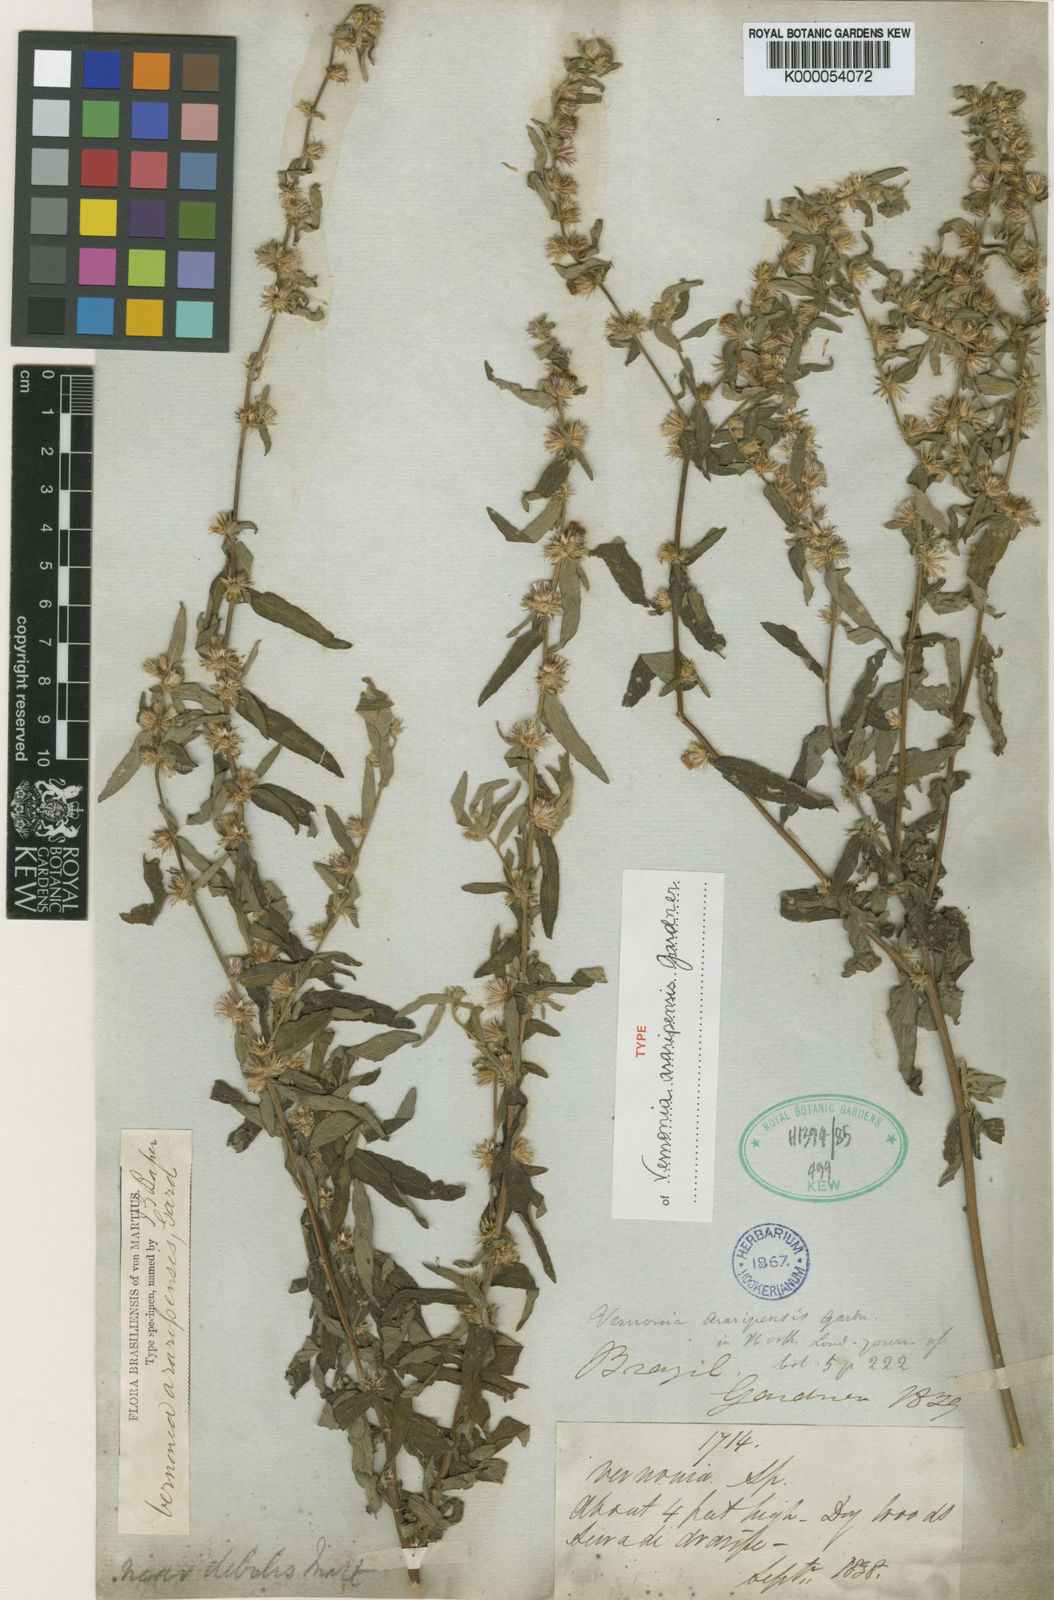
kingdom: Plantae
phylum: Tracheophyta
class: Magnoliopsida
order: Asterales
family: Asteraceae
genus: Lepidaploa
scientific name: Lepidaploa araripensis
